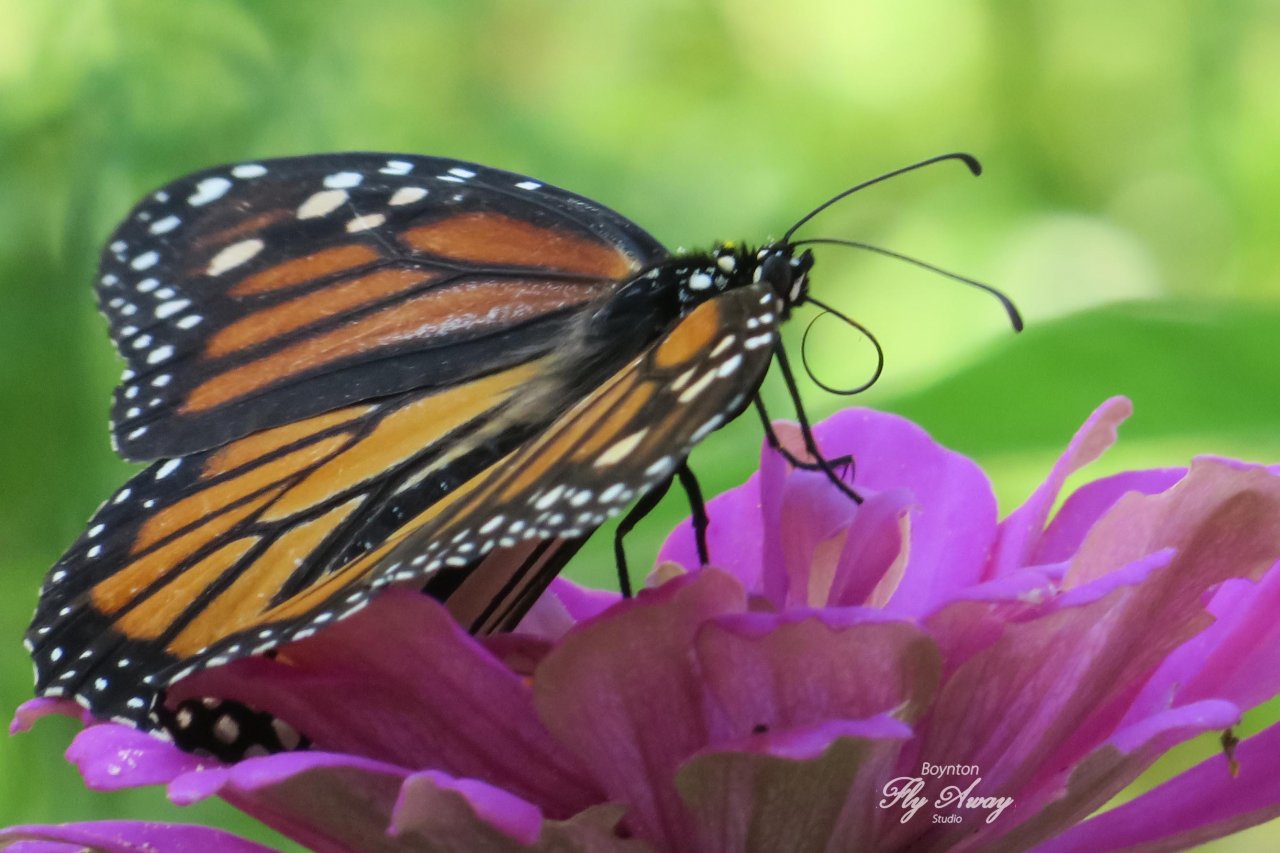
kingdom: Animalia
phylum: Arthropoda
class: Insecta
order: Lepidoptera
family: Nymphalidae
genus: Danaus
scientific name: Danaus plexippus
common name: Monarch
